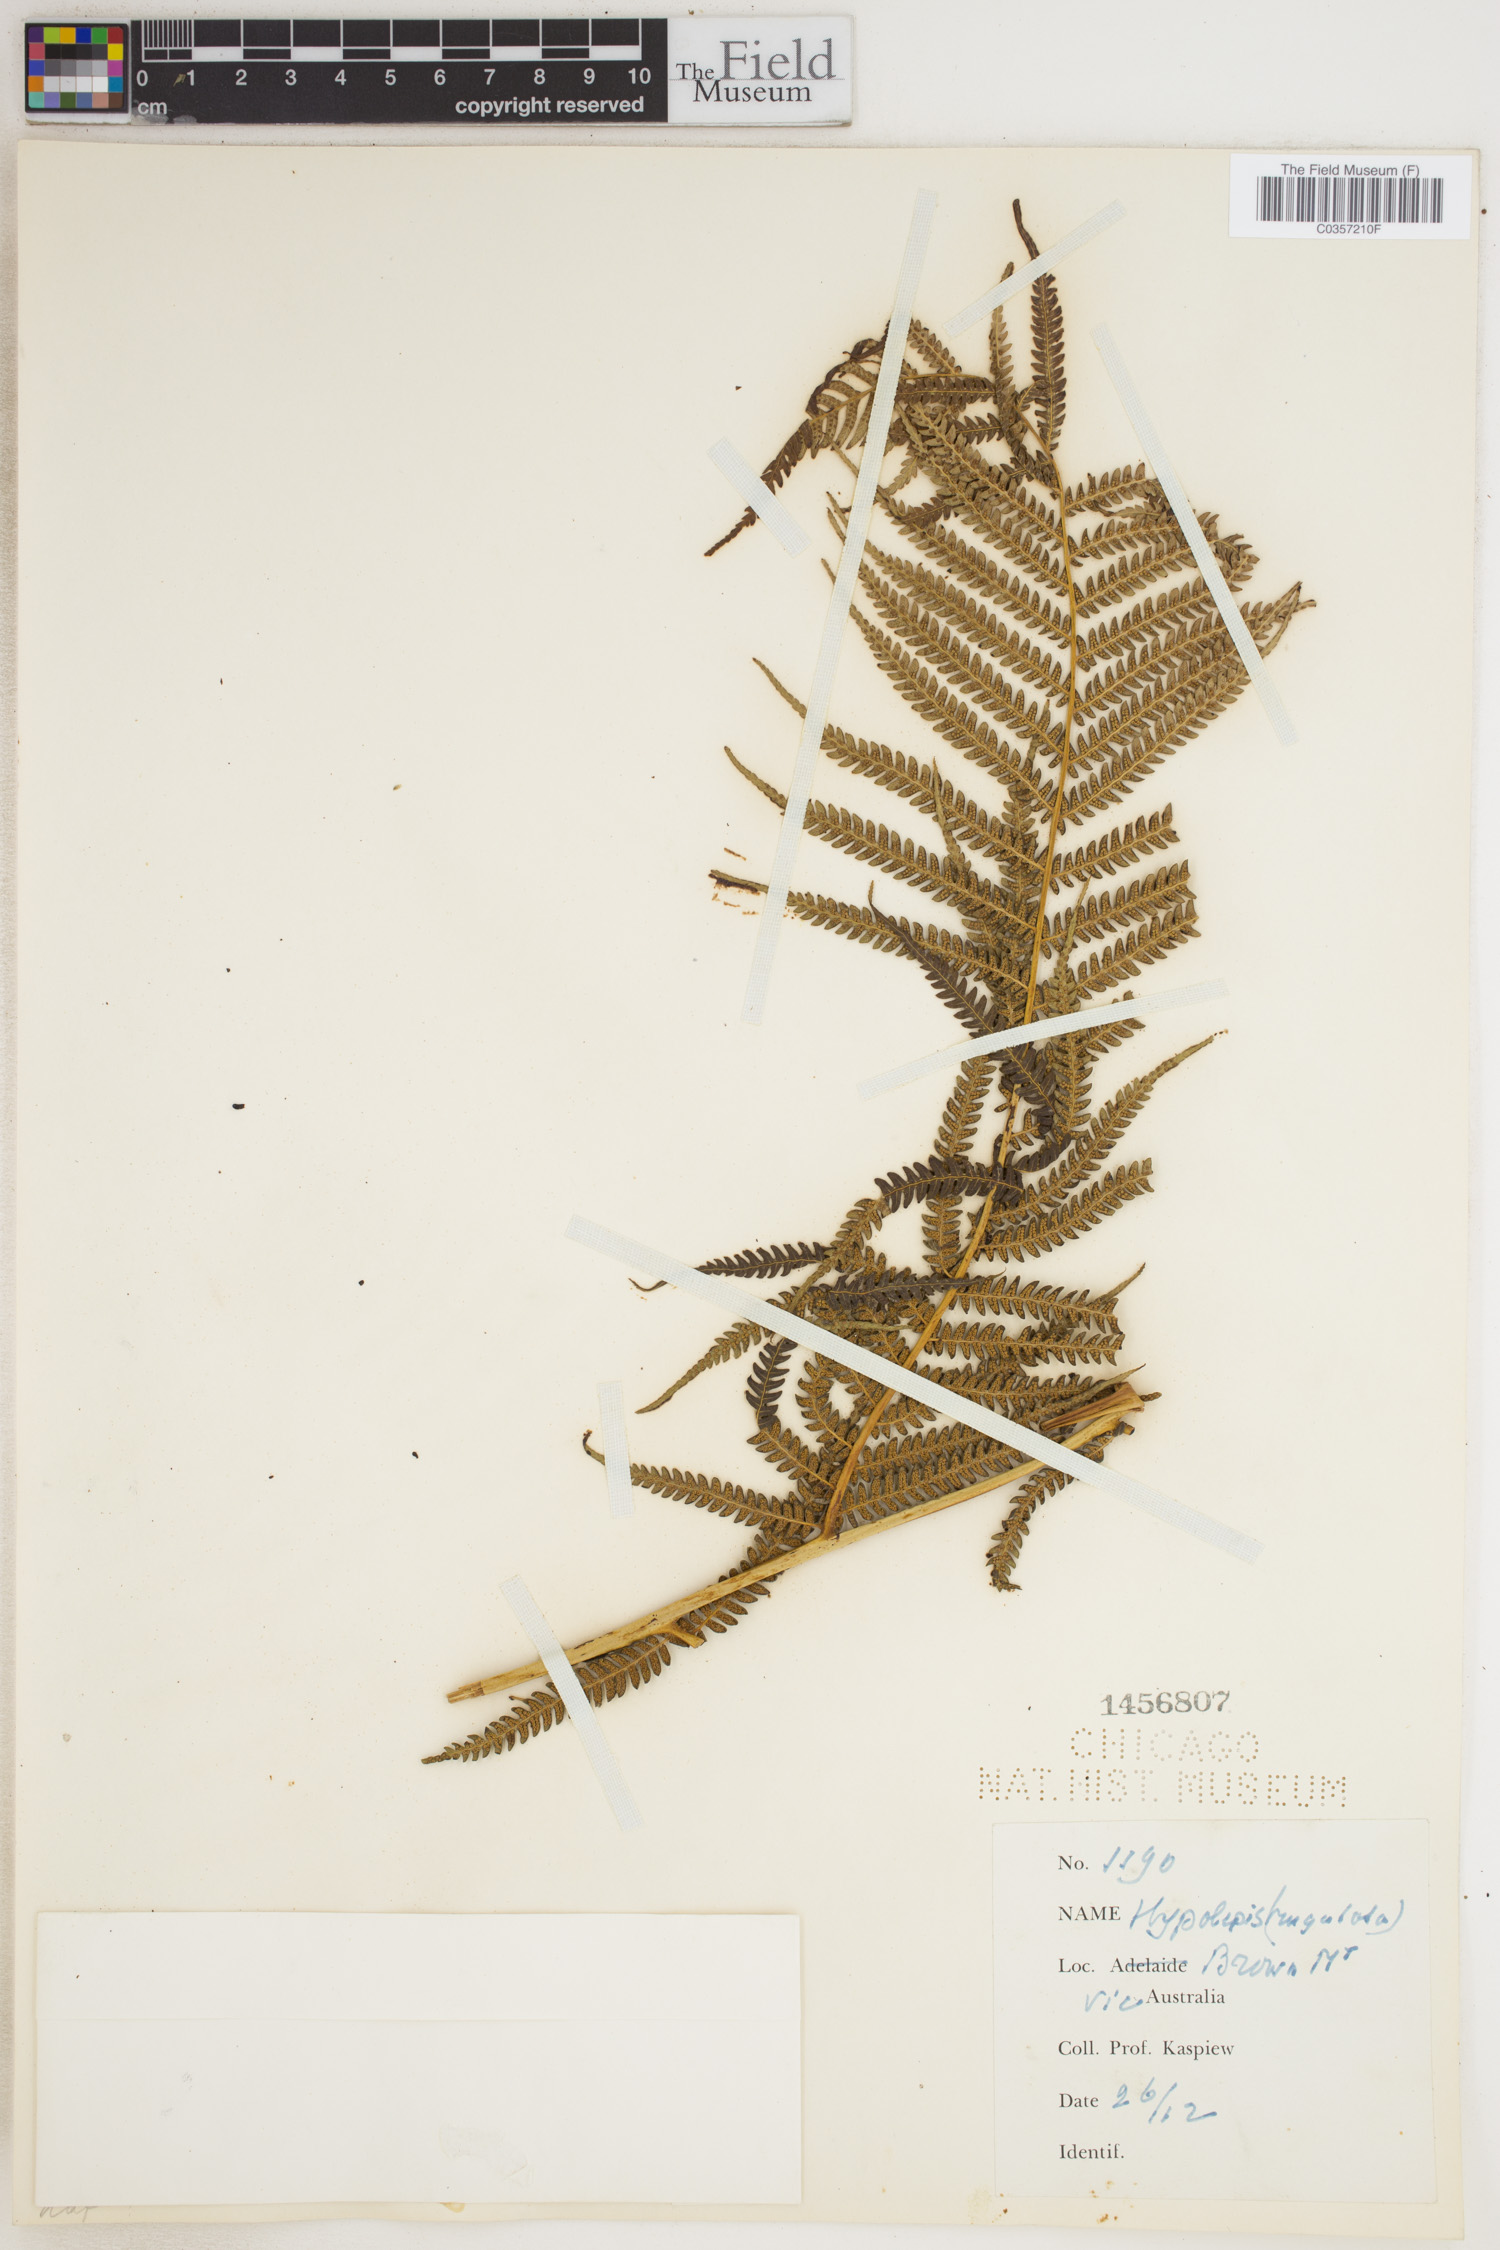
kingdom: Plantae
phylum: Tracheophyta
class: Polypodiopsida
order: Polypodiales
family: Dennstaedtiaceae
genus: Hypolepis
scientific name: Hypolepis
